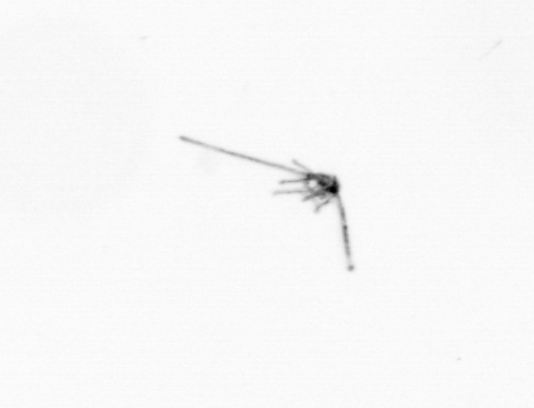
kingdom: Animalia
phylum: Echinodermata
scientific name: Echinodermata
